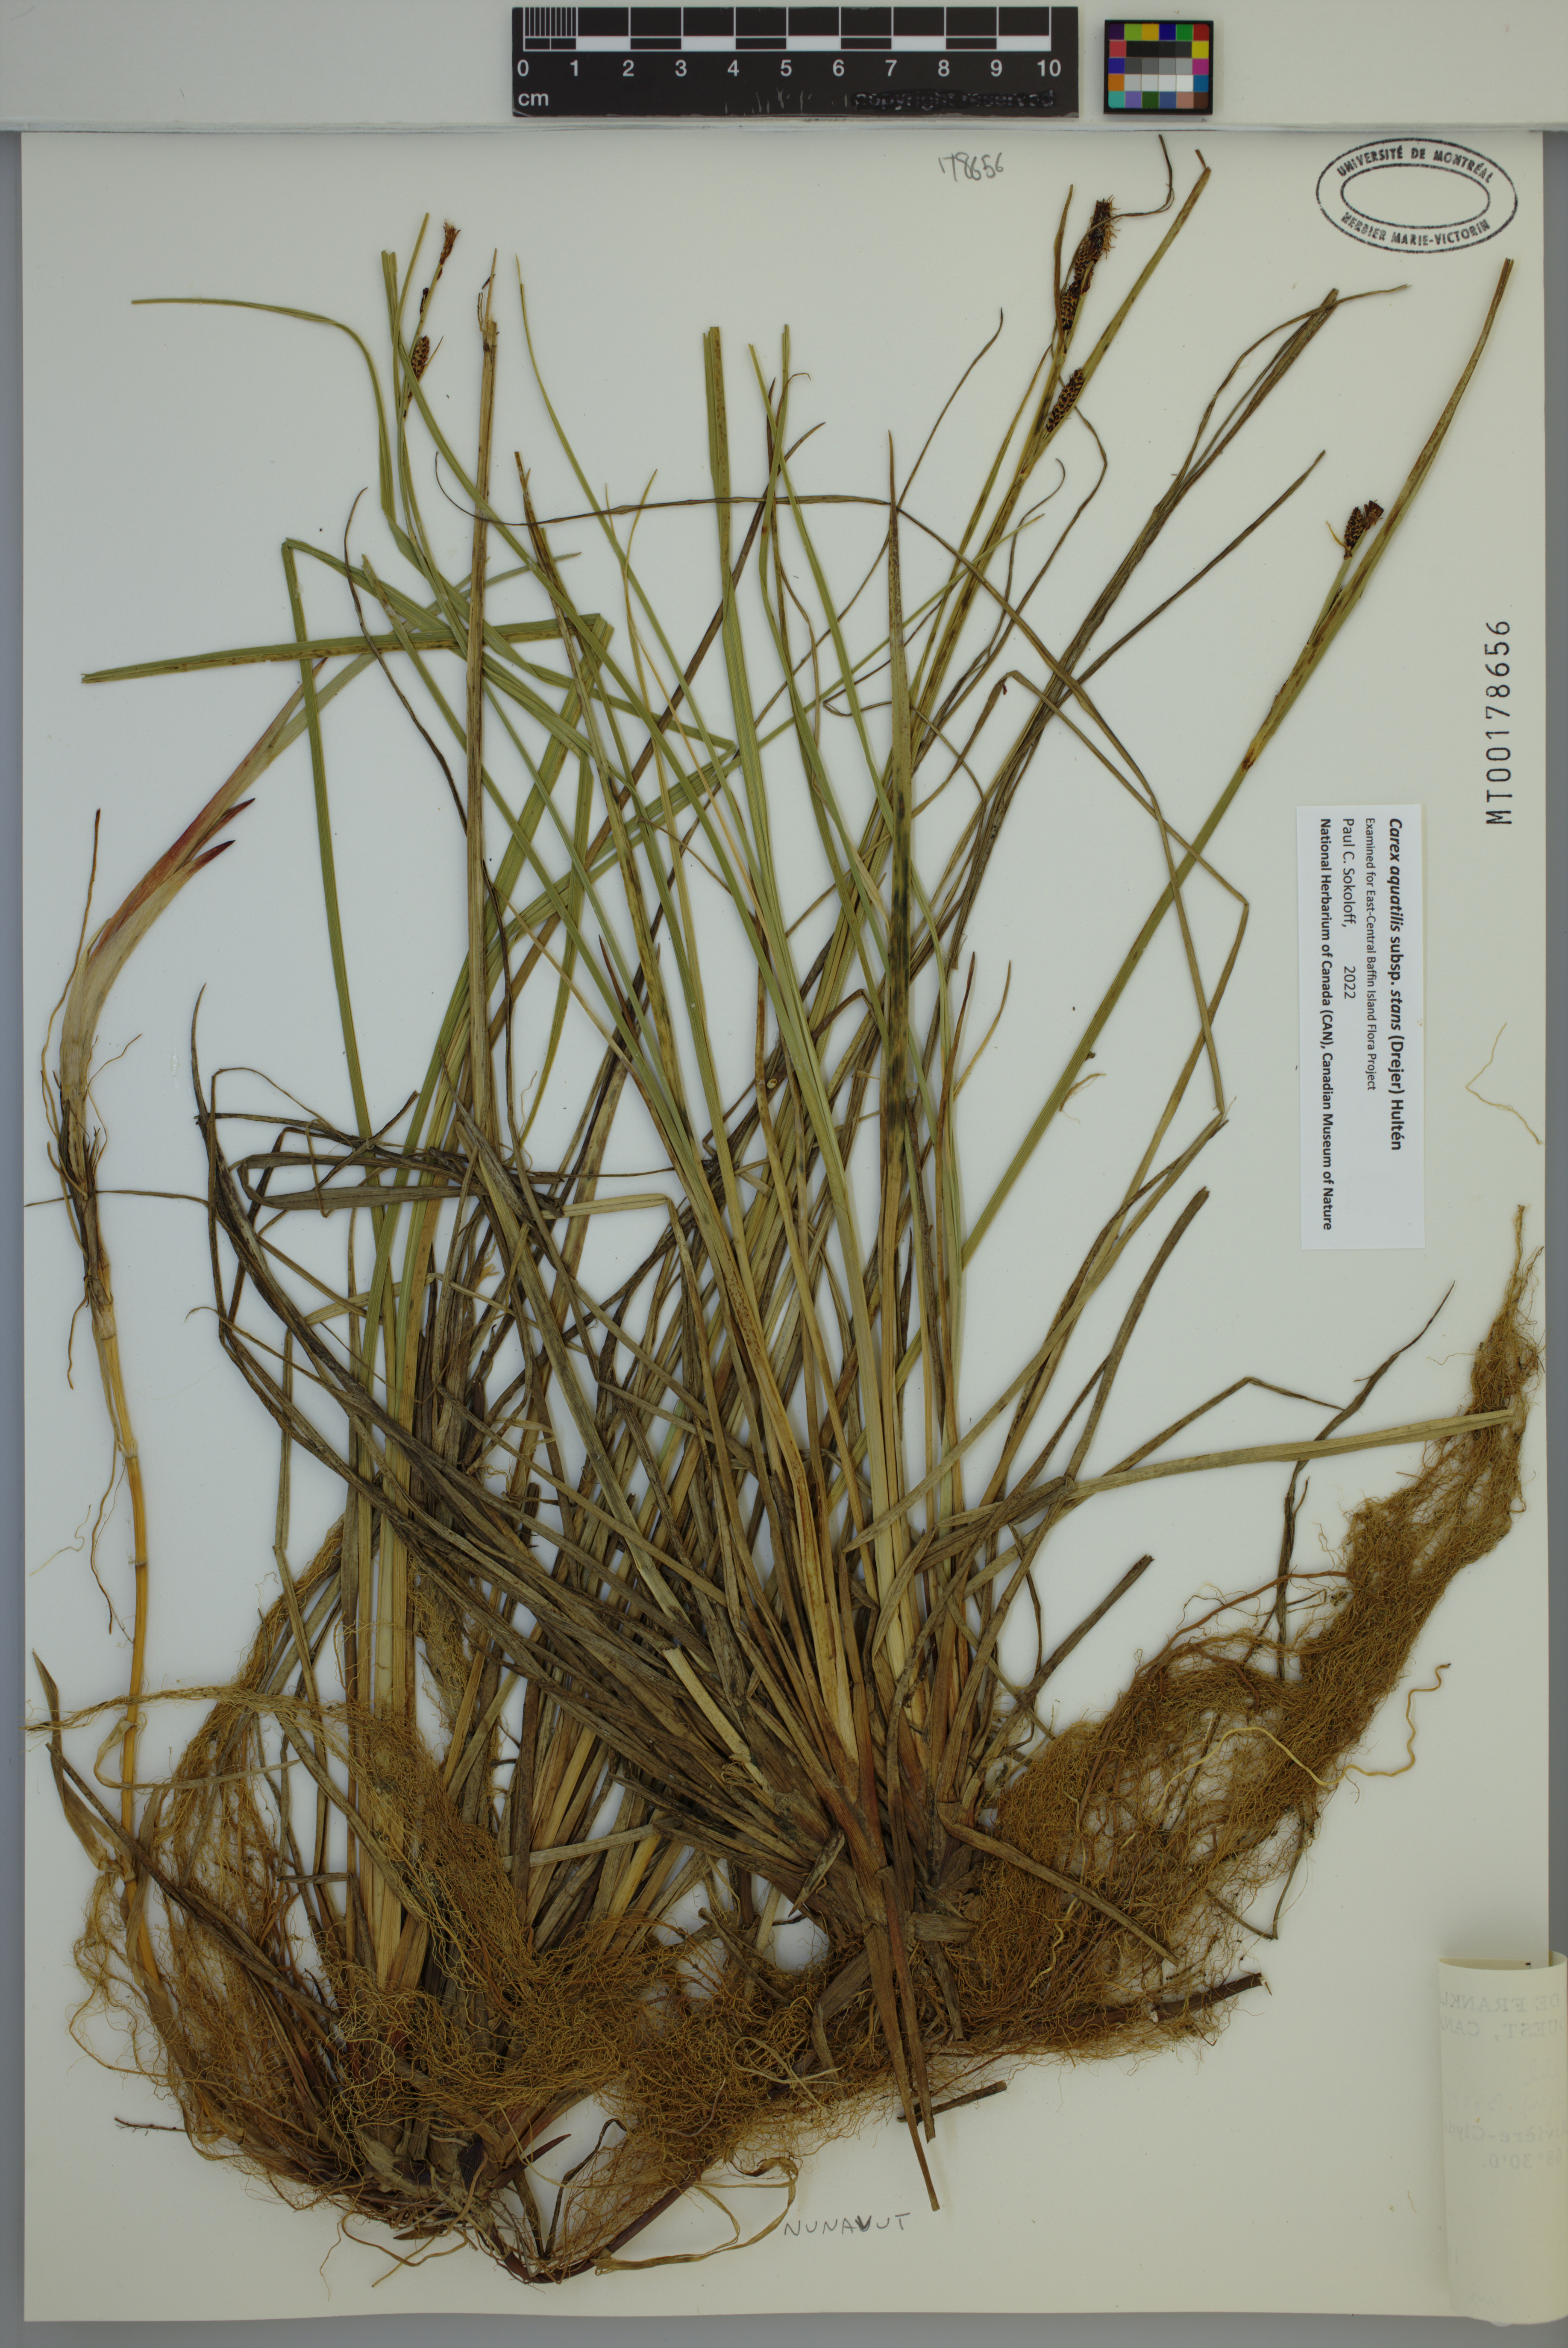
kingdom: Plantae
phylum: Tracheophyta
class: Liliopsida
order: Poales
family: Cyperaceae
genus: Carex
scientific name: Carex aquatilis
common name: Water sedge
